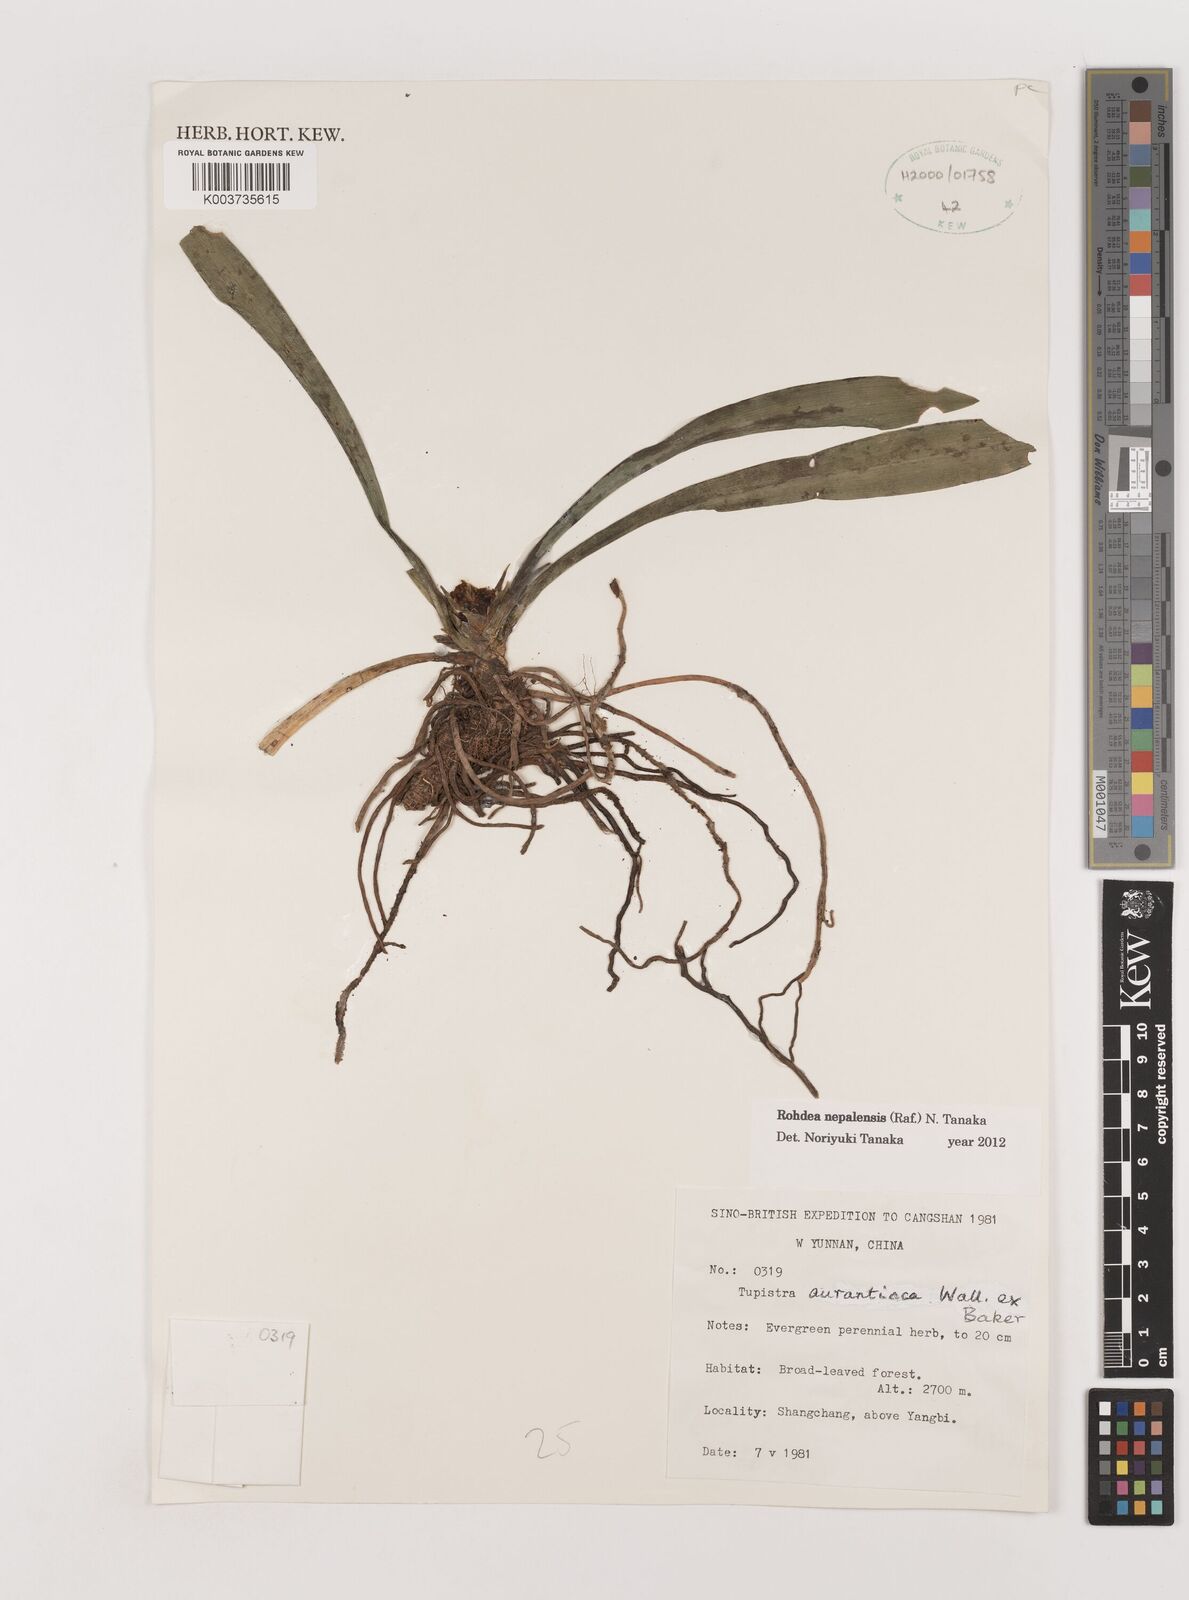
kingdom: Plantae
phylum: Tracheophyta
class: Liliopsida
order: Asparagales
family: Asparagaceae
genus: Rohdea
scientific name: Rohdea nepalensis
